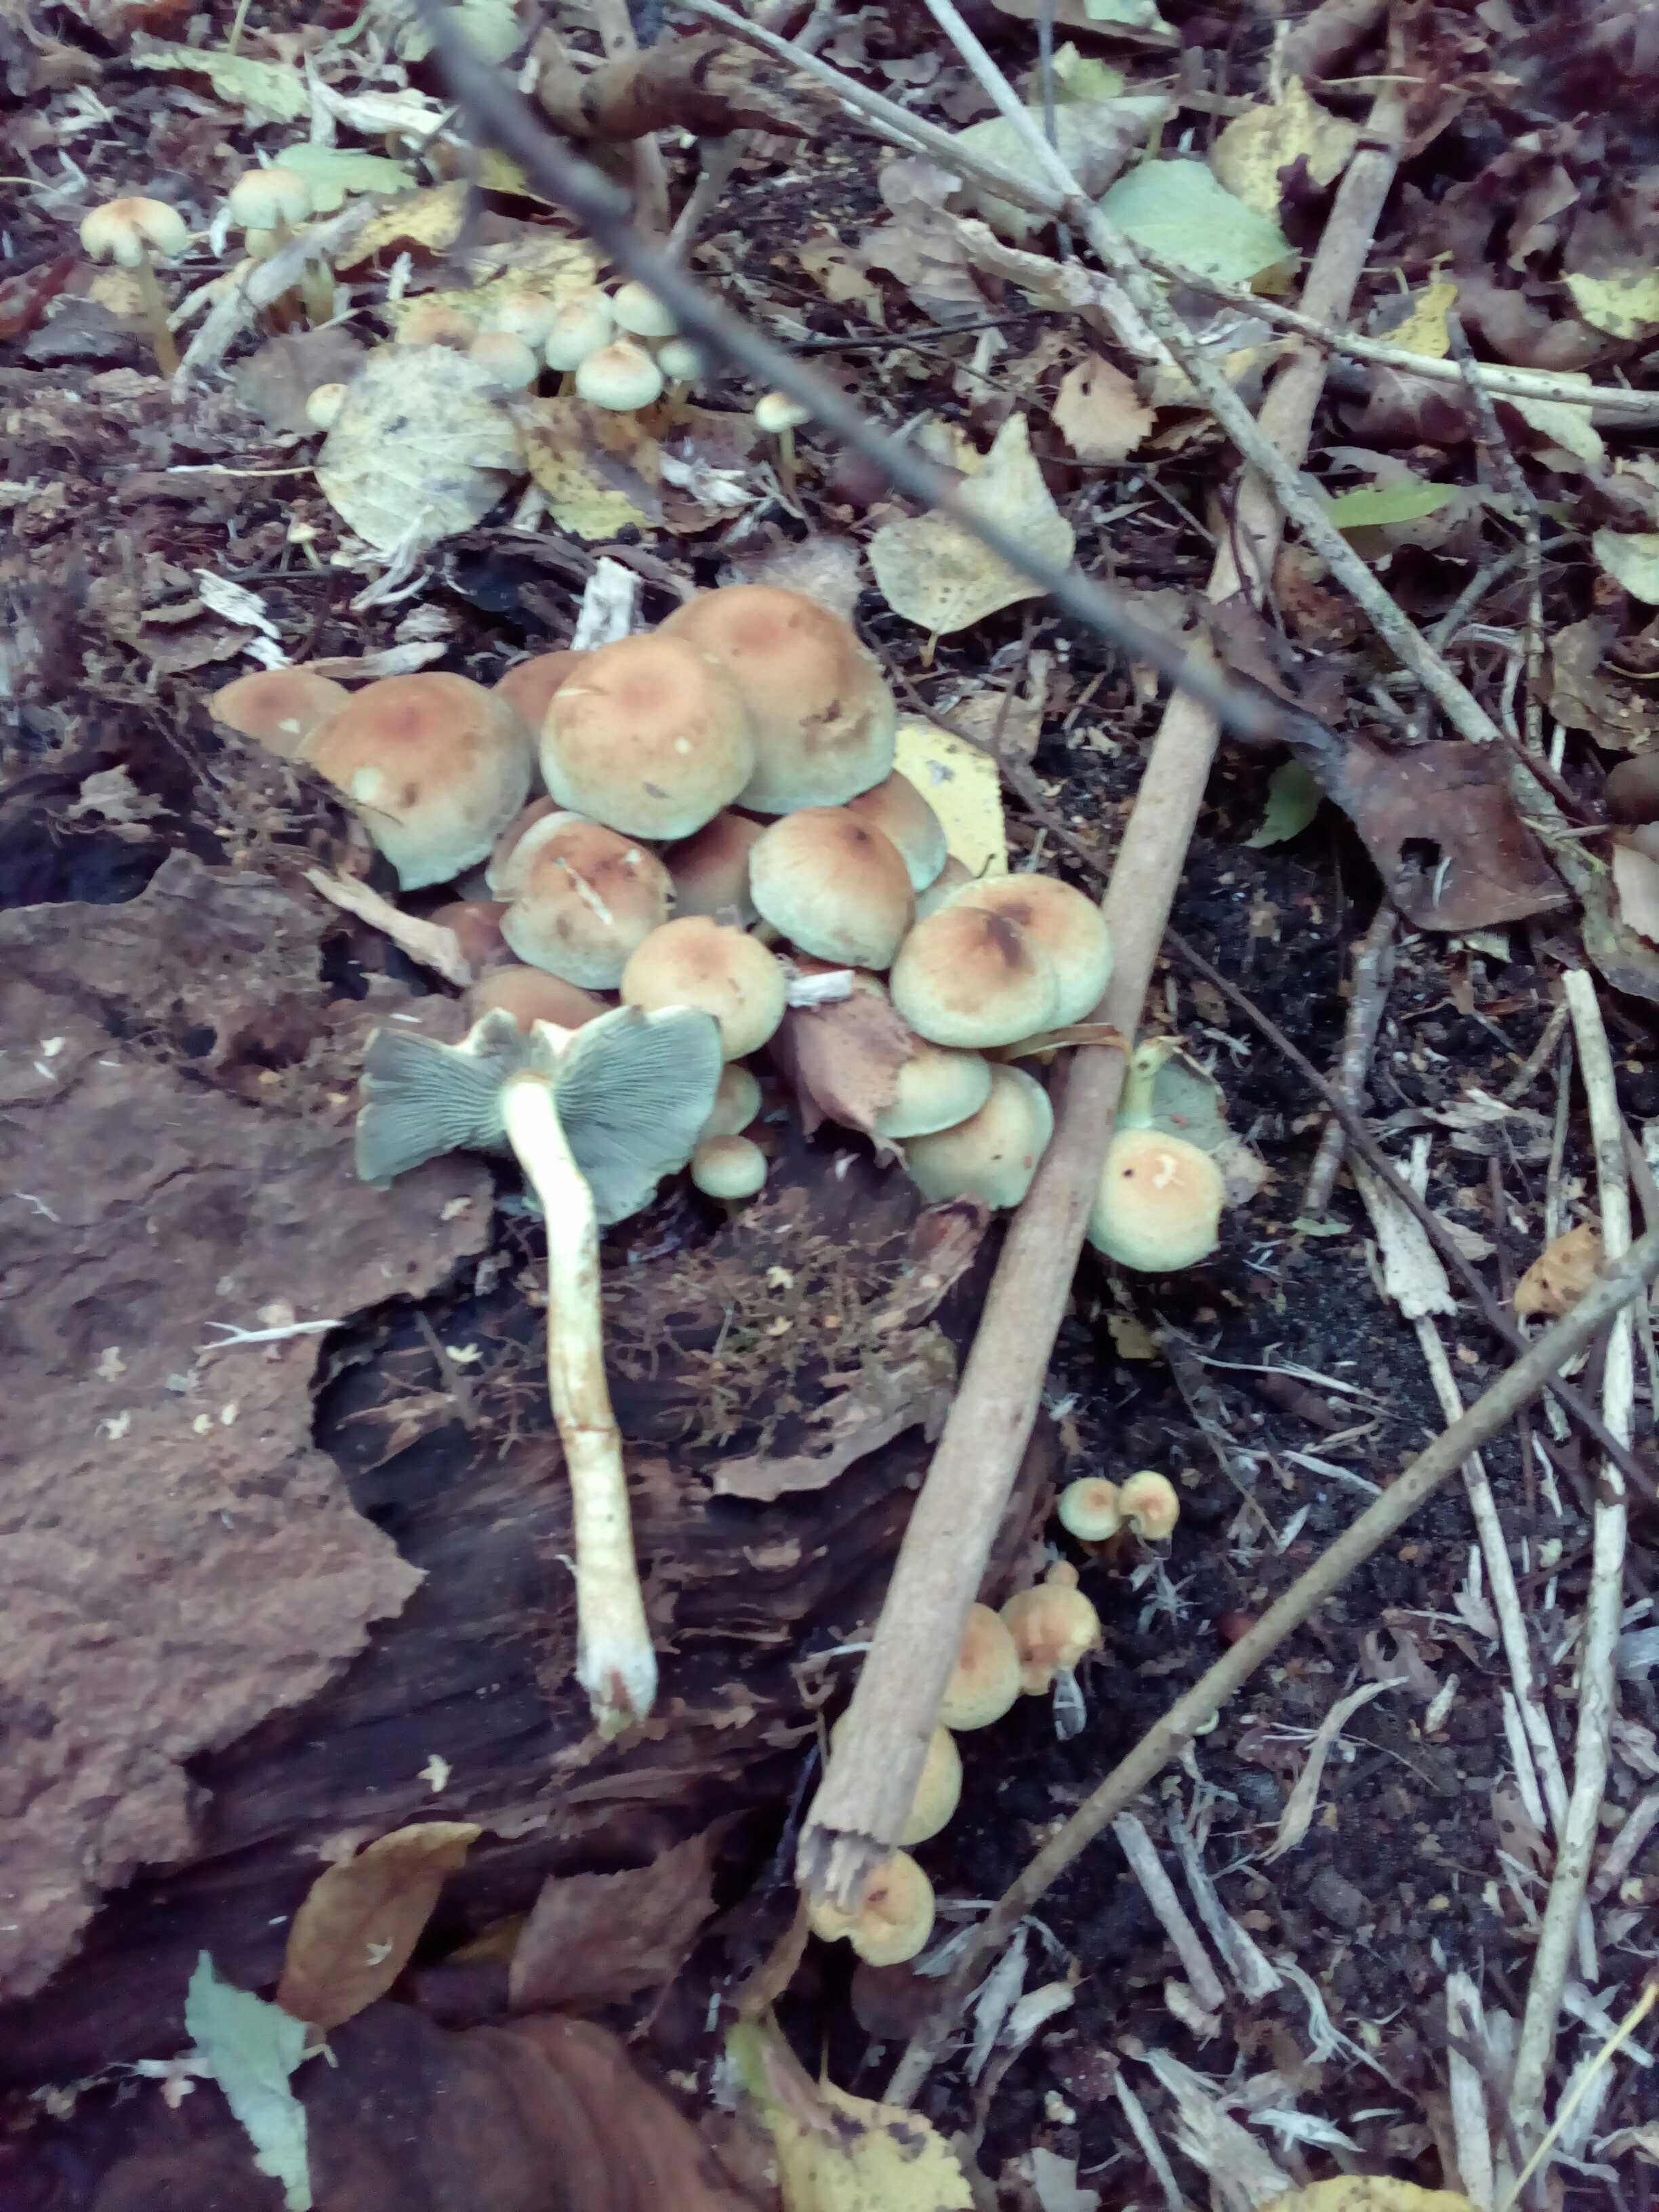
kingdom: Fungi
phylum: Basidiomycota
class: Agaricomycetes
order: Agaricales
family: Strophariaceae
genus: Hypholoma
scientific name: Hypholoma fasciculare
